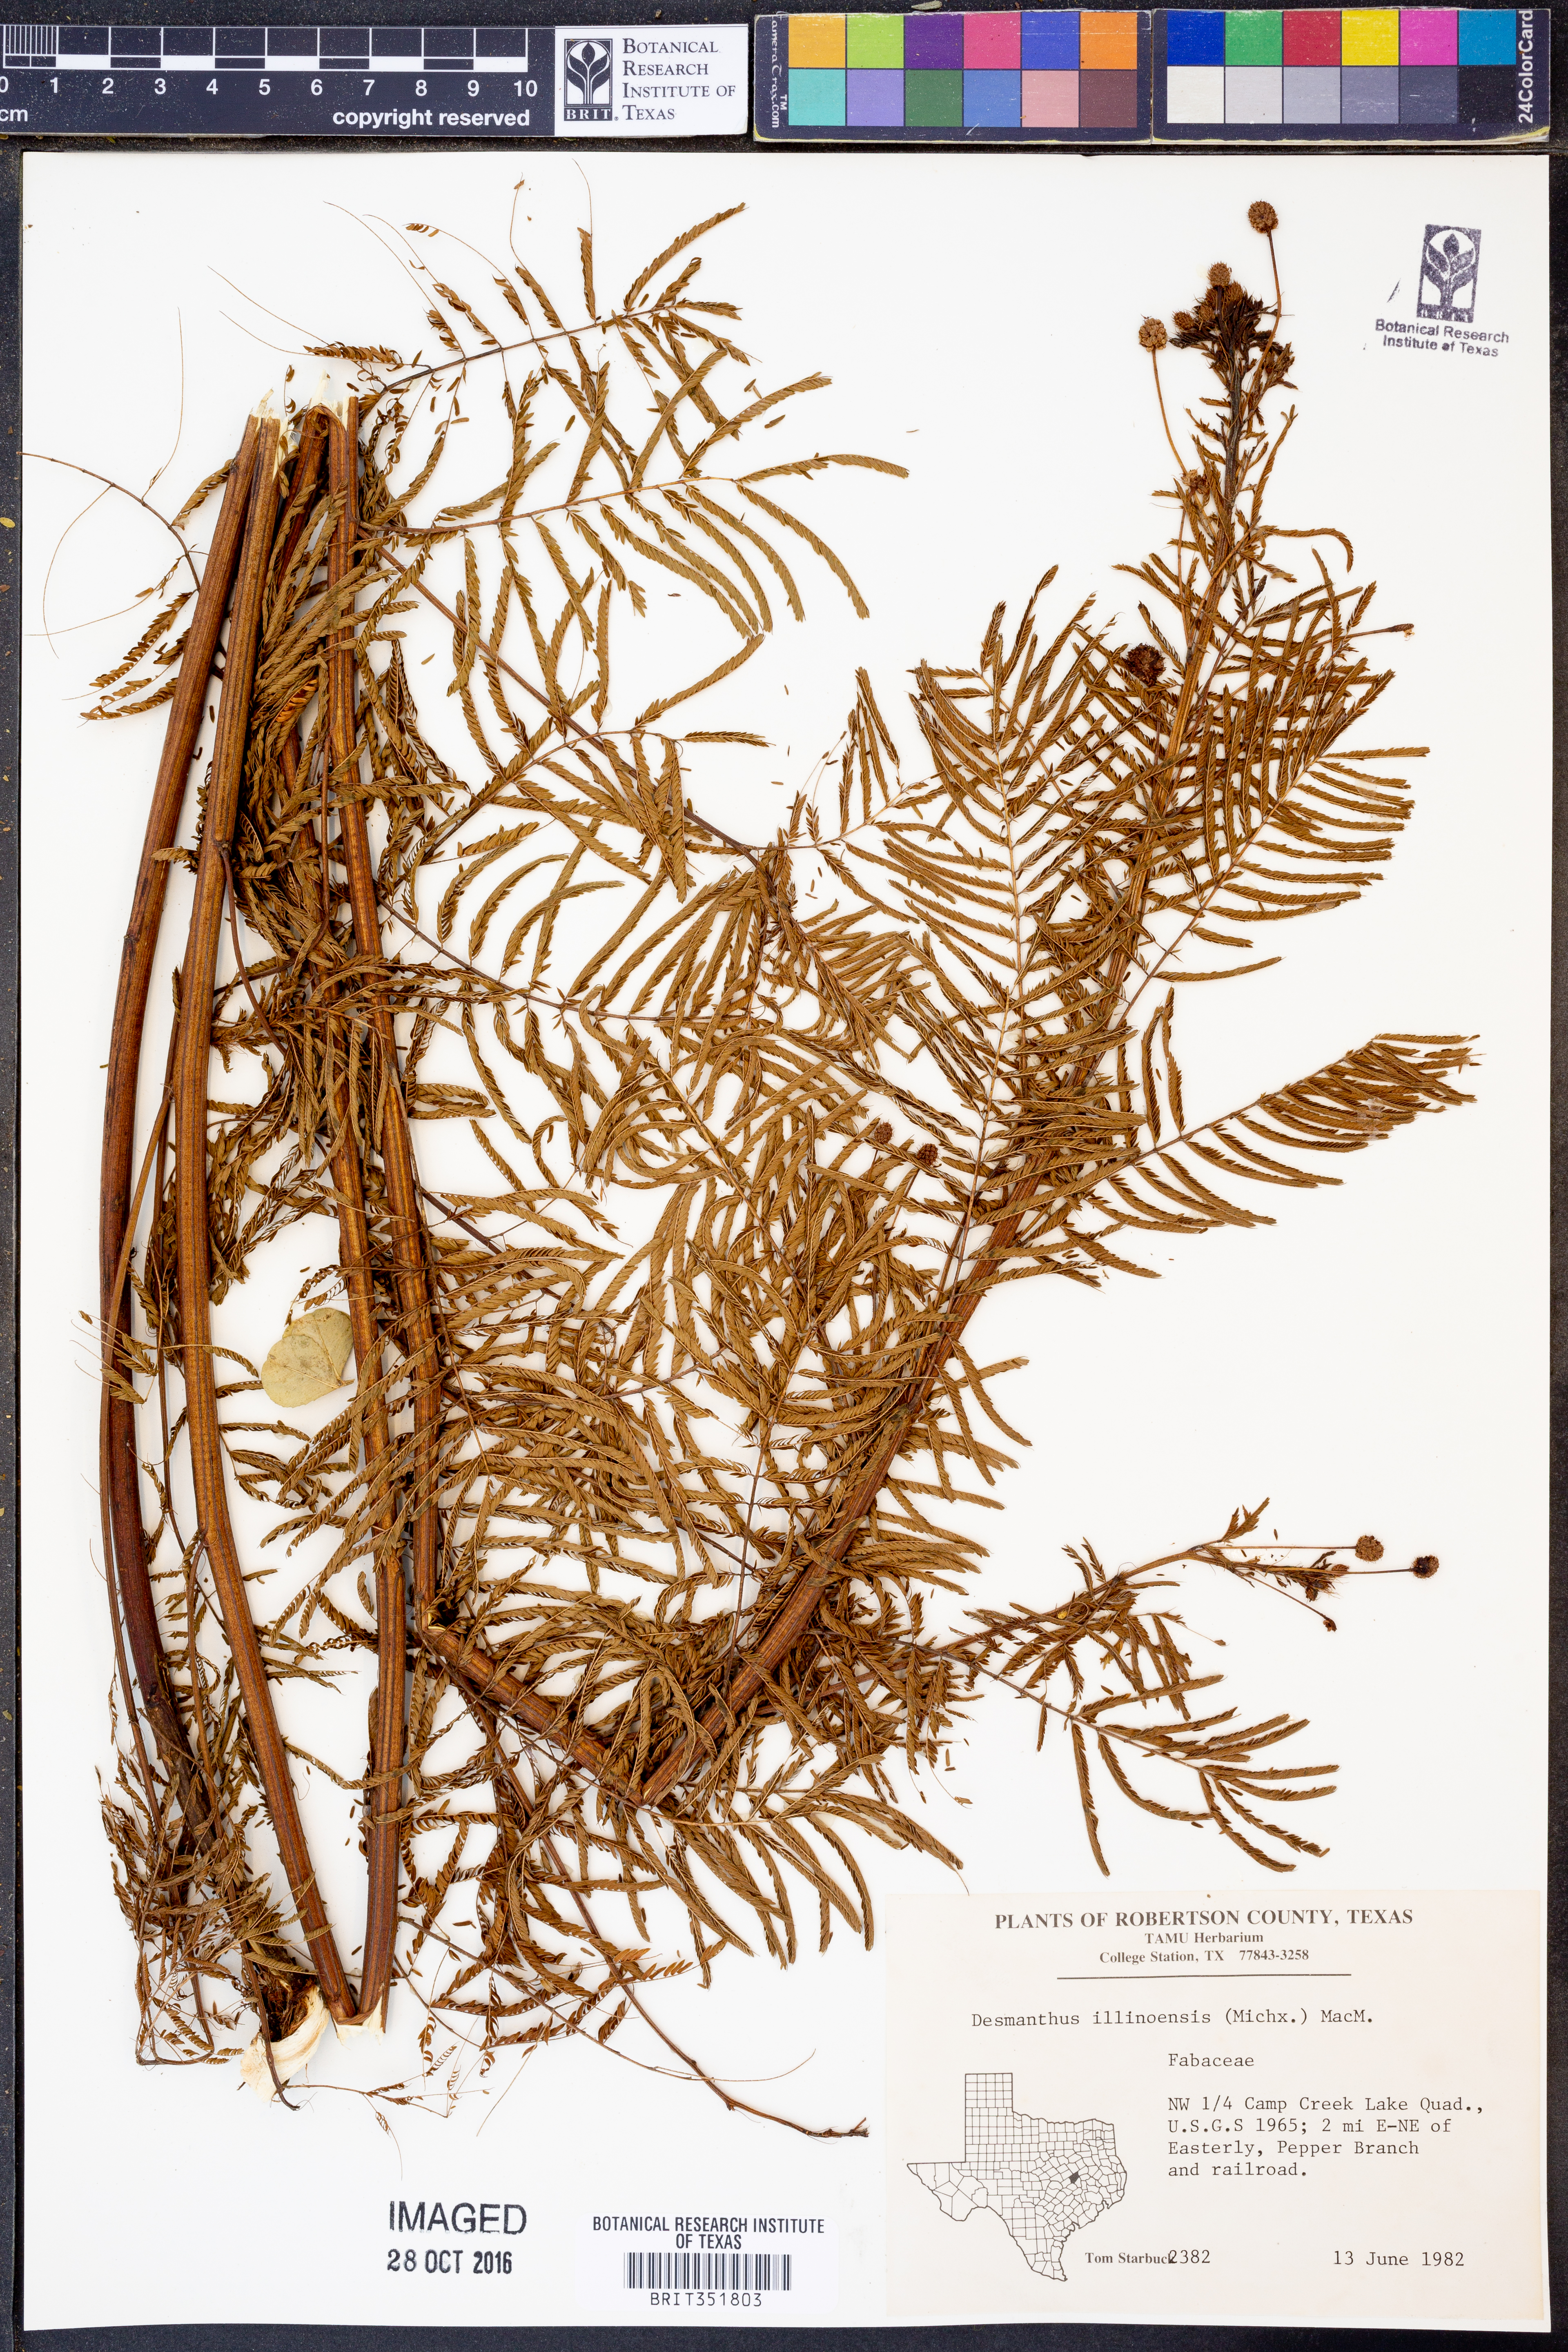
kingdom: Plantae
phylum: Tracheophyta
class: Magnoliopsida
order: Fabales
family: Fabaceae
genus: Desmanthus
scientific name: Desmanthus illinoensis
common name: Illinois bundle-flower
